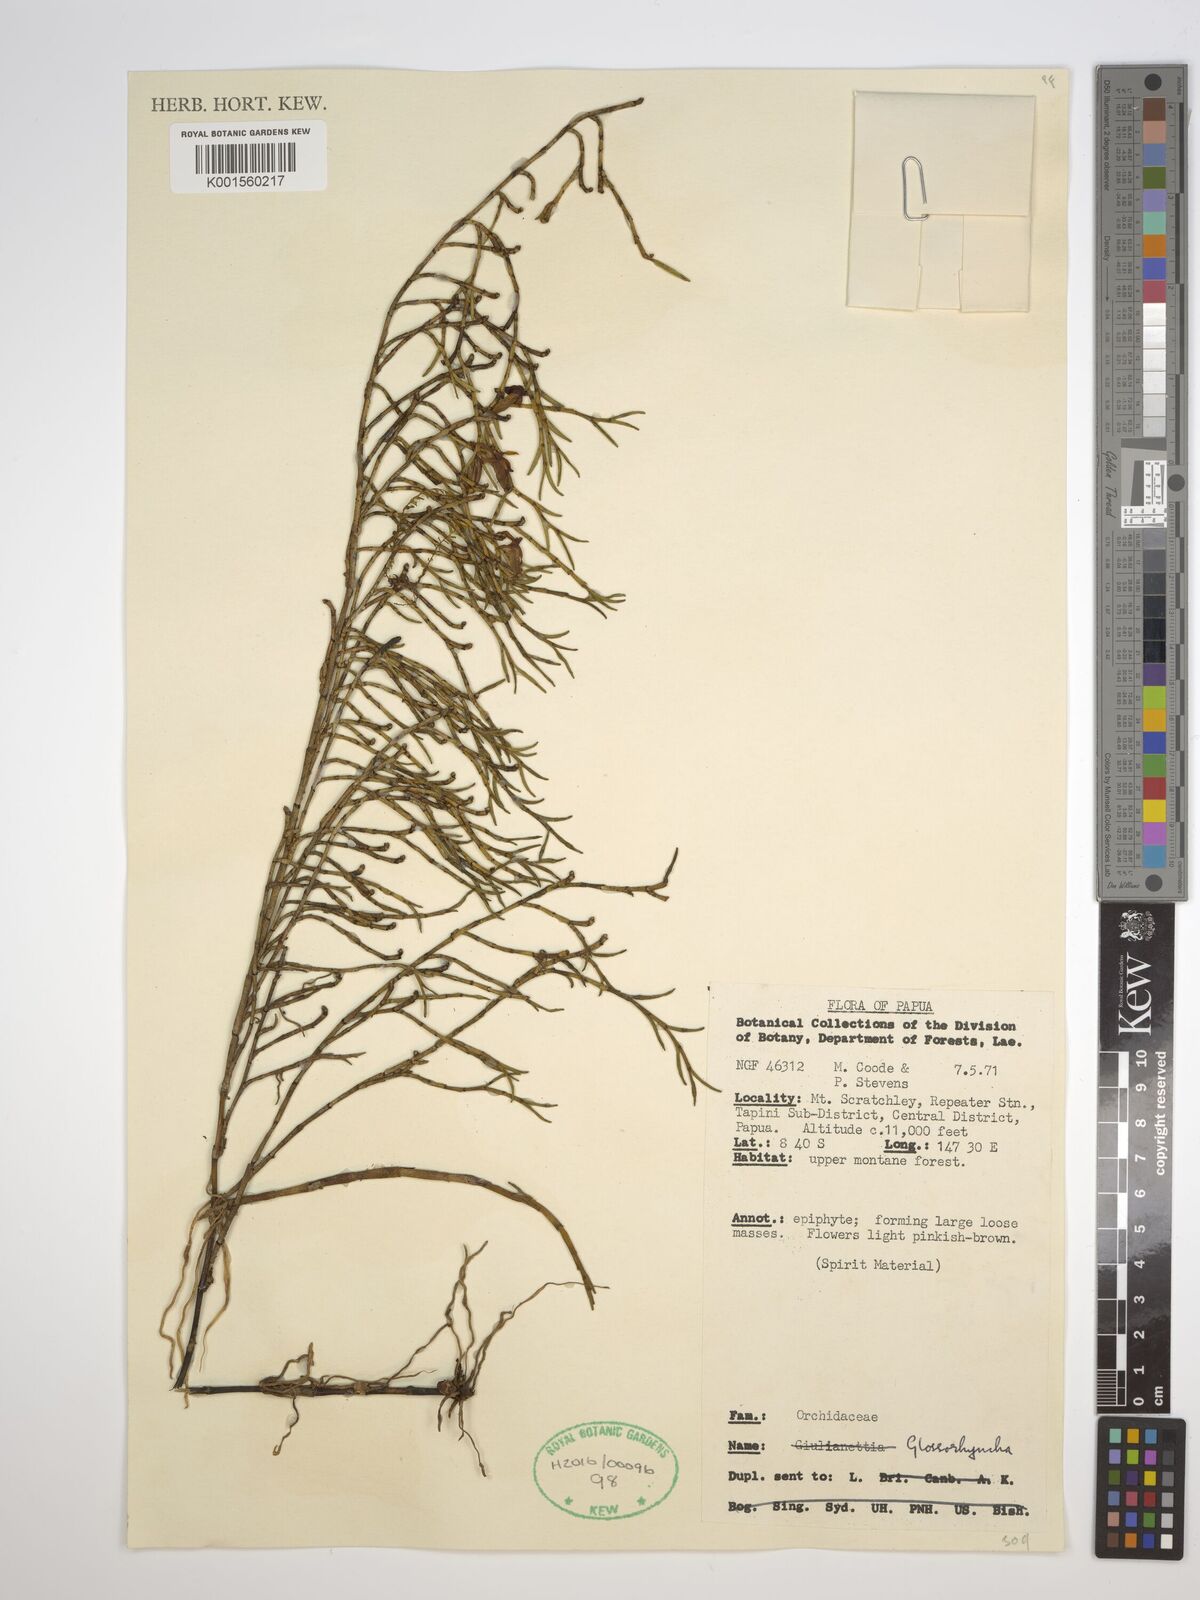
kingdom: Plantae
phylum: Tracheophyta
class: Liliopsida
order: Asparagales
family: Orchidaceae
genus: Glomera
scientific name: Glomera
